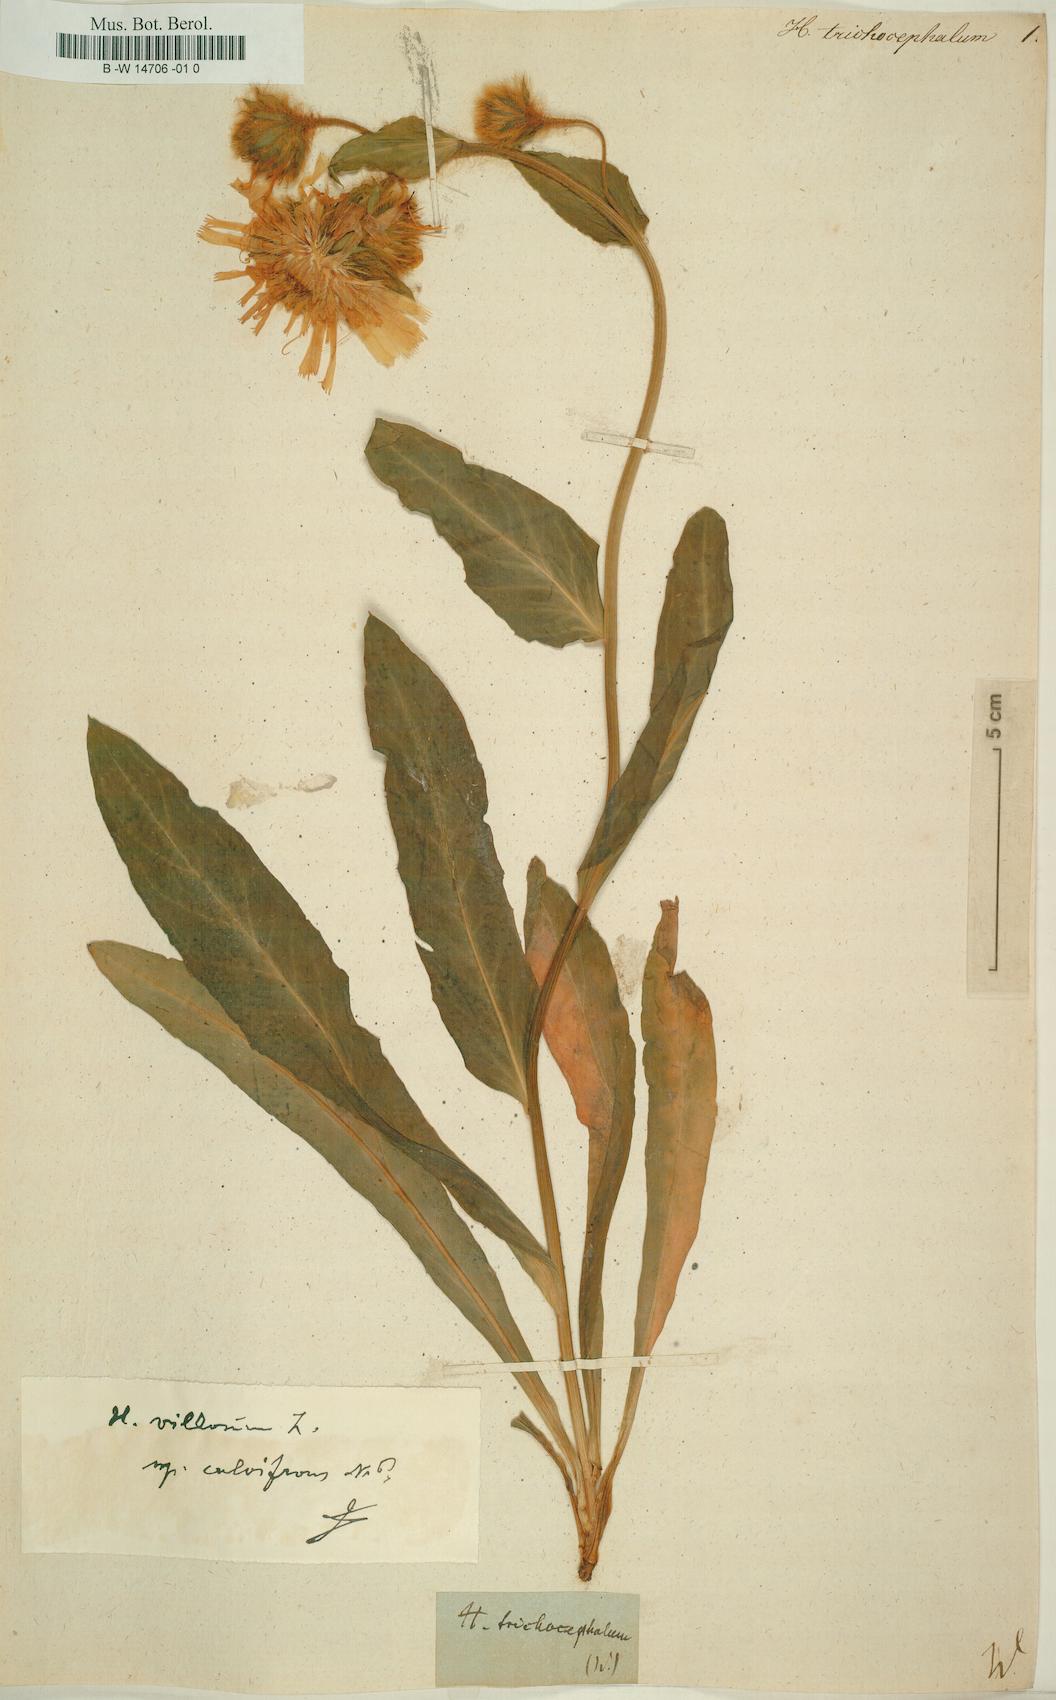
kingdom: Plantae
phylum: Tracheophyta
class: Magnoliopsida
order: Asterales
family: Asteraceae
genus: Hieracium
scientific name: Hieracium trichocephalum
